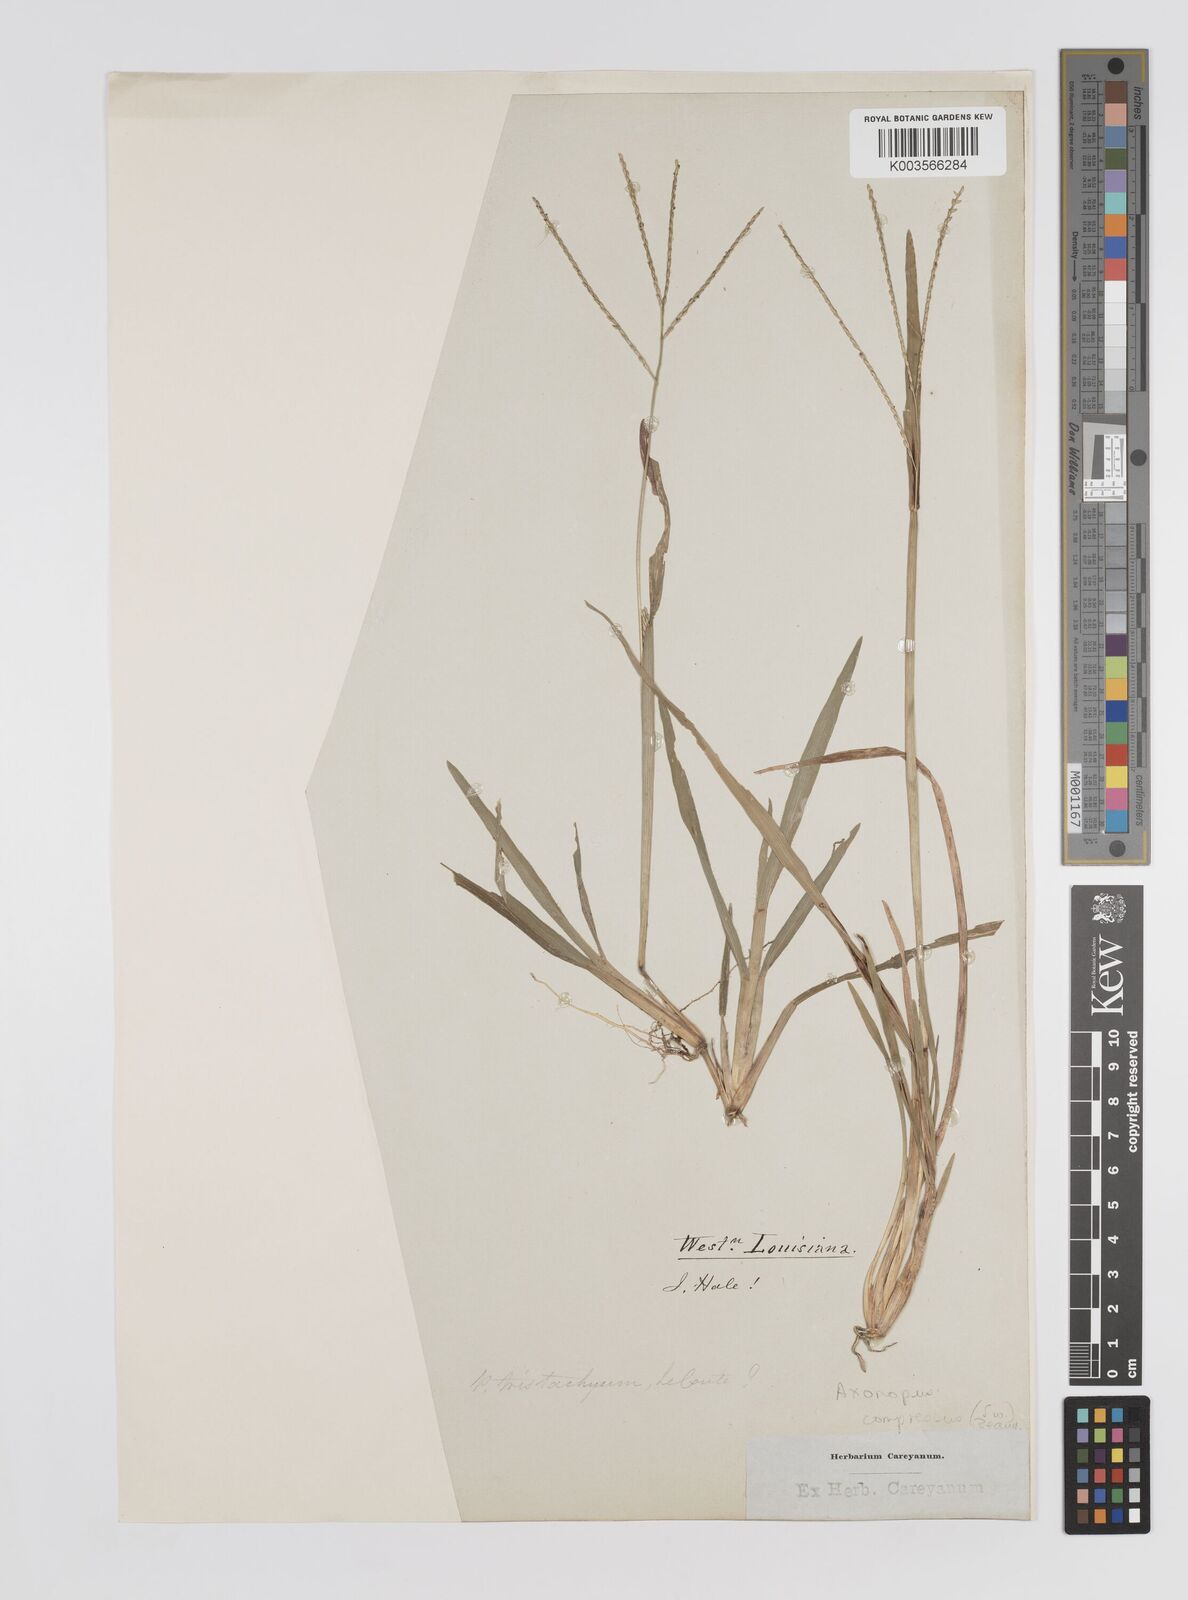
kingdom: Plantae
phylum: Tracheophyta
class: Liliopsida
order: Poales
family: Poaceae
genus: Axonopus
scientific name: Axonopus compressus
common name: American carpet grass
